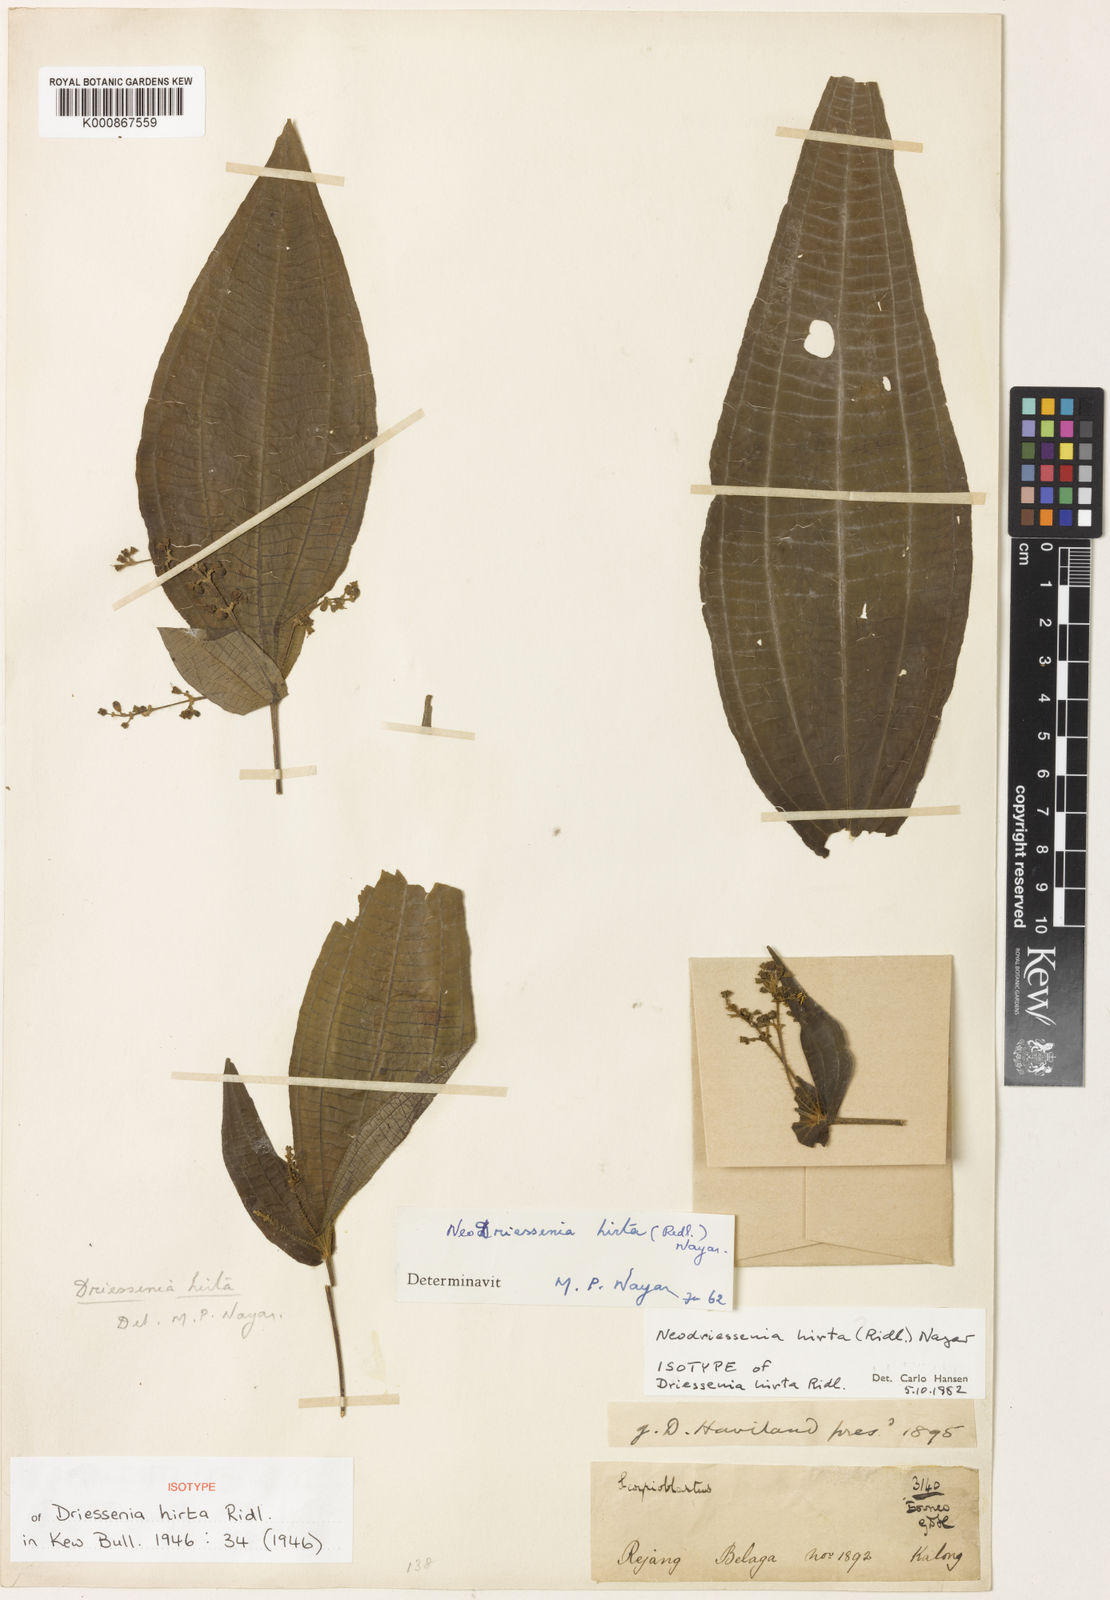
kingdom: Plantae
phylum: Tracheophyta
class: Magnoliopsida
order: Myrtales
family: Melastomataceae
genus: Neodriessenia
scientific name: Neodriessenia hirta
